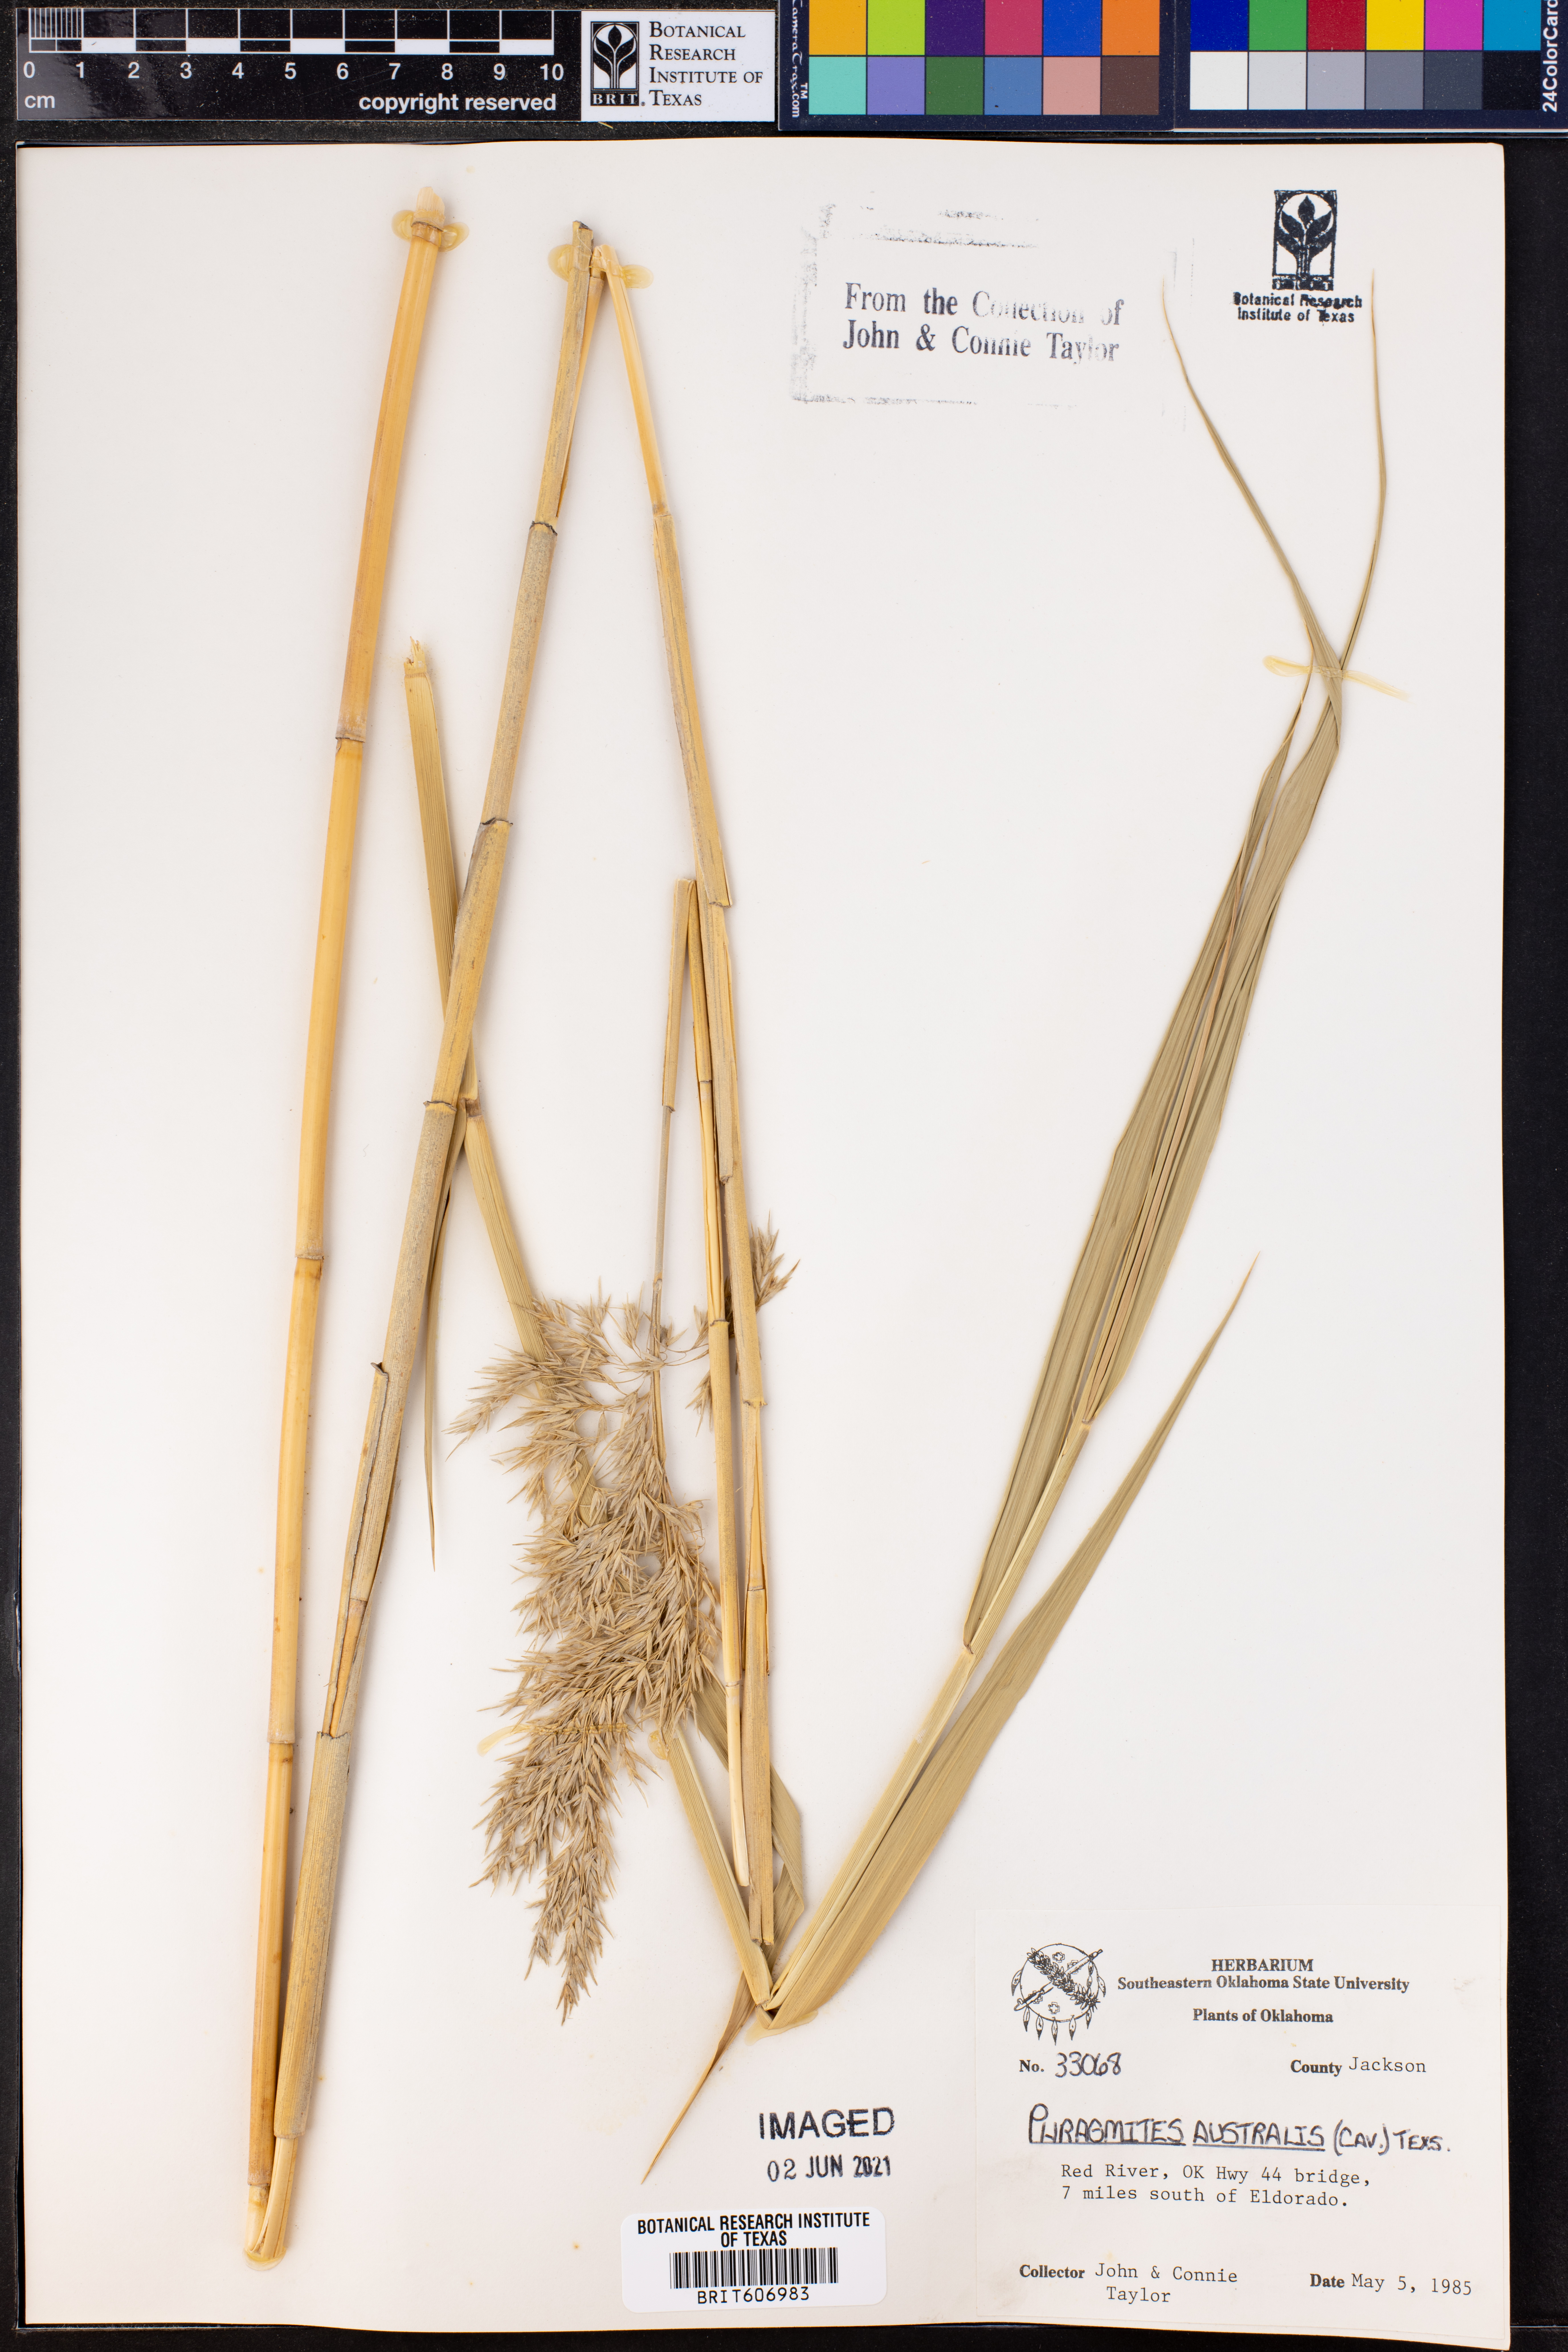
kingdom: Plantae
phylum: Tracheophyta
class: Liliopsida
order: Poales
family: Poaceae
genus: Phragmites
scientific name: Phragmites australis
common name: Common reed
